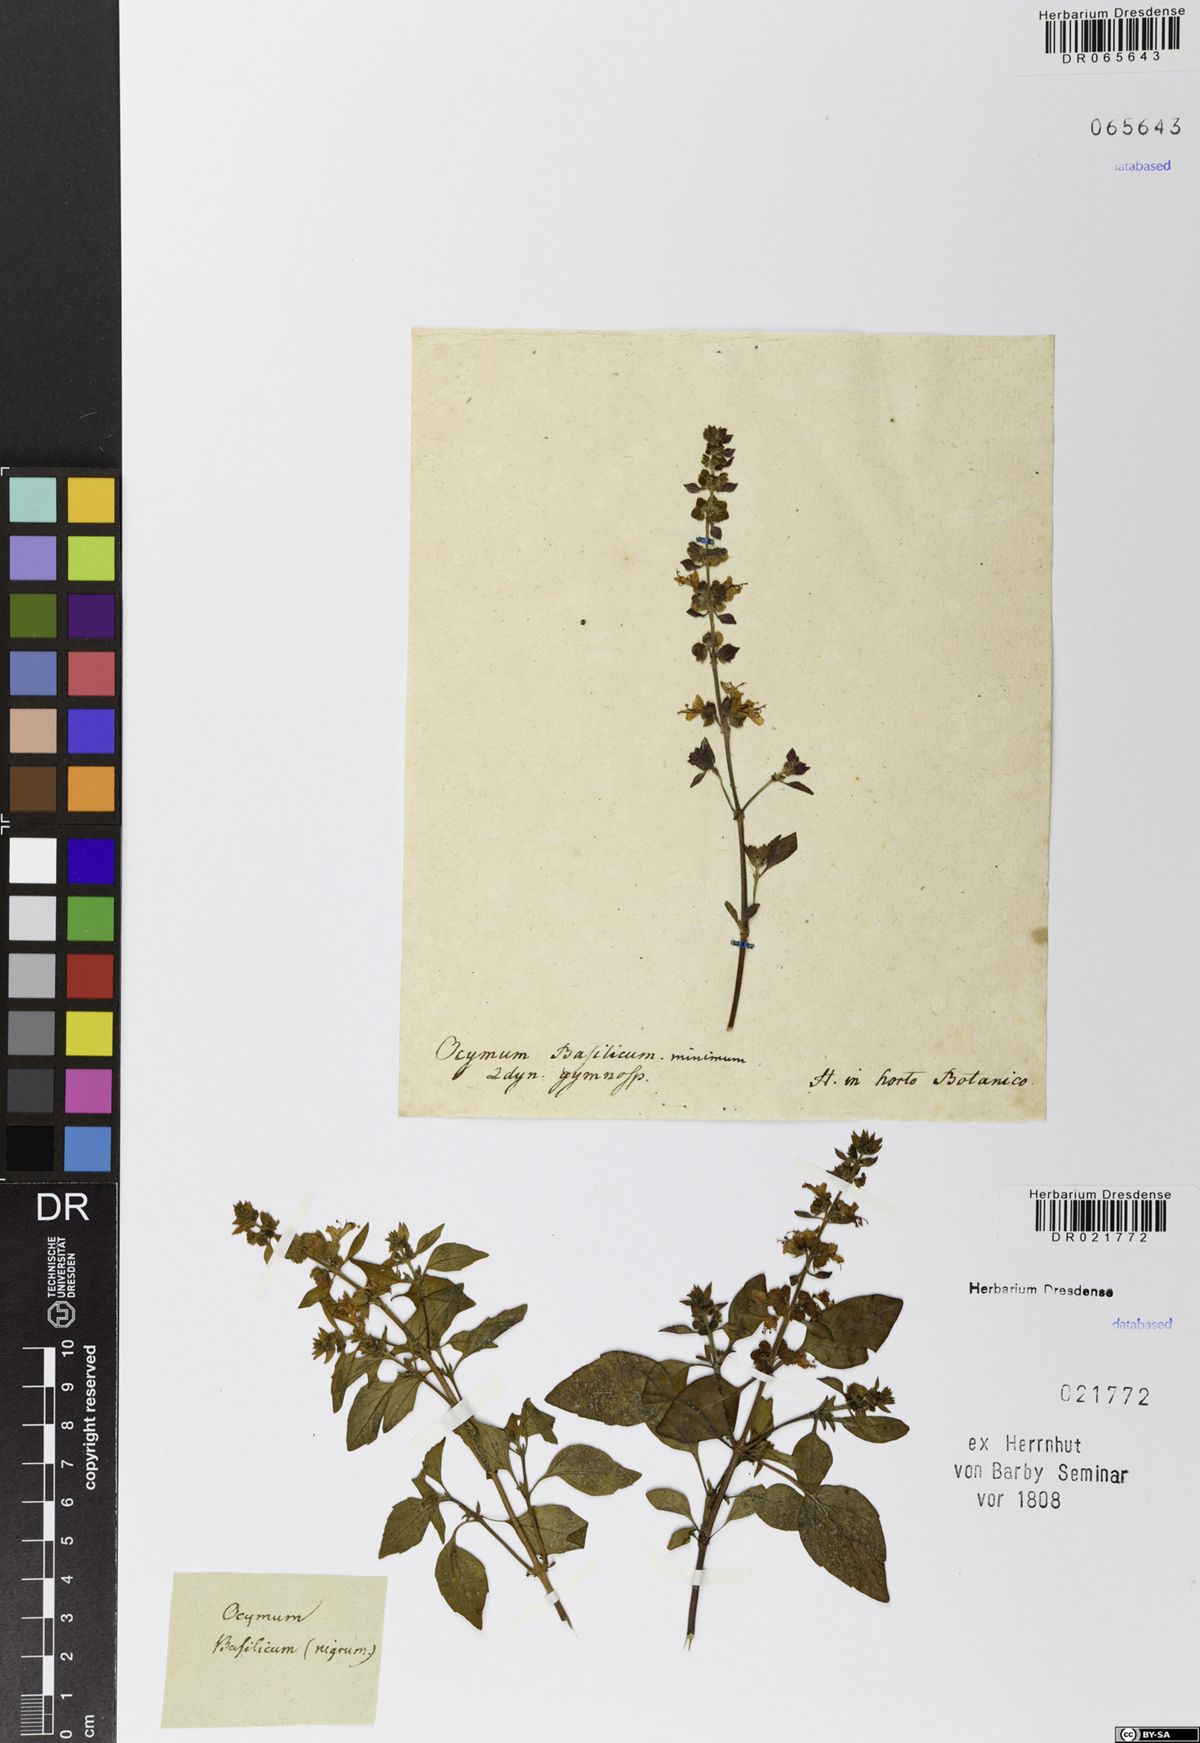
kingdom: Plantae
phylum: Tracheophyta
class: Magnoliopsida
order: Lamiales
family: Lamiaceae
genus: Ocimum
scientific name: Ocimum basilicum
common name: Sweet basil
